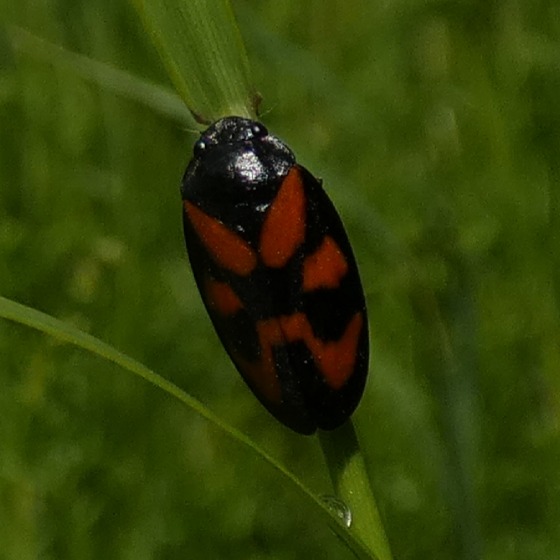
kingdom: Animalia
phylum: Arthropoda
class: Insecta
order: Hemiptera
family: Cercopidae
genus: Cercopis
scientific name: Cercopis vulnerata
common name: Blodcikade
